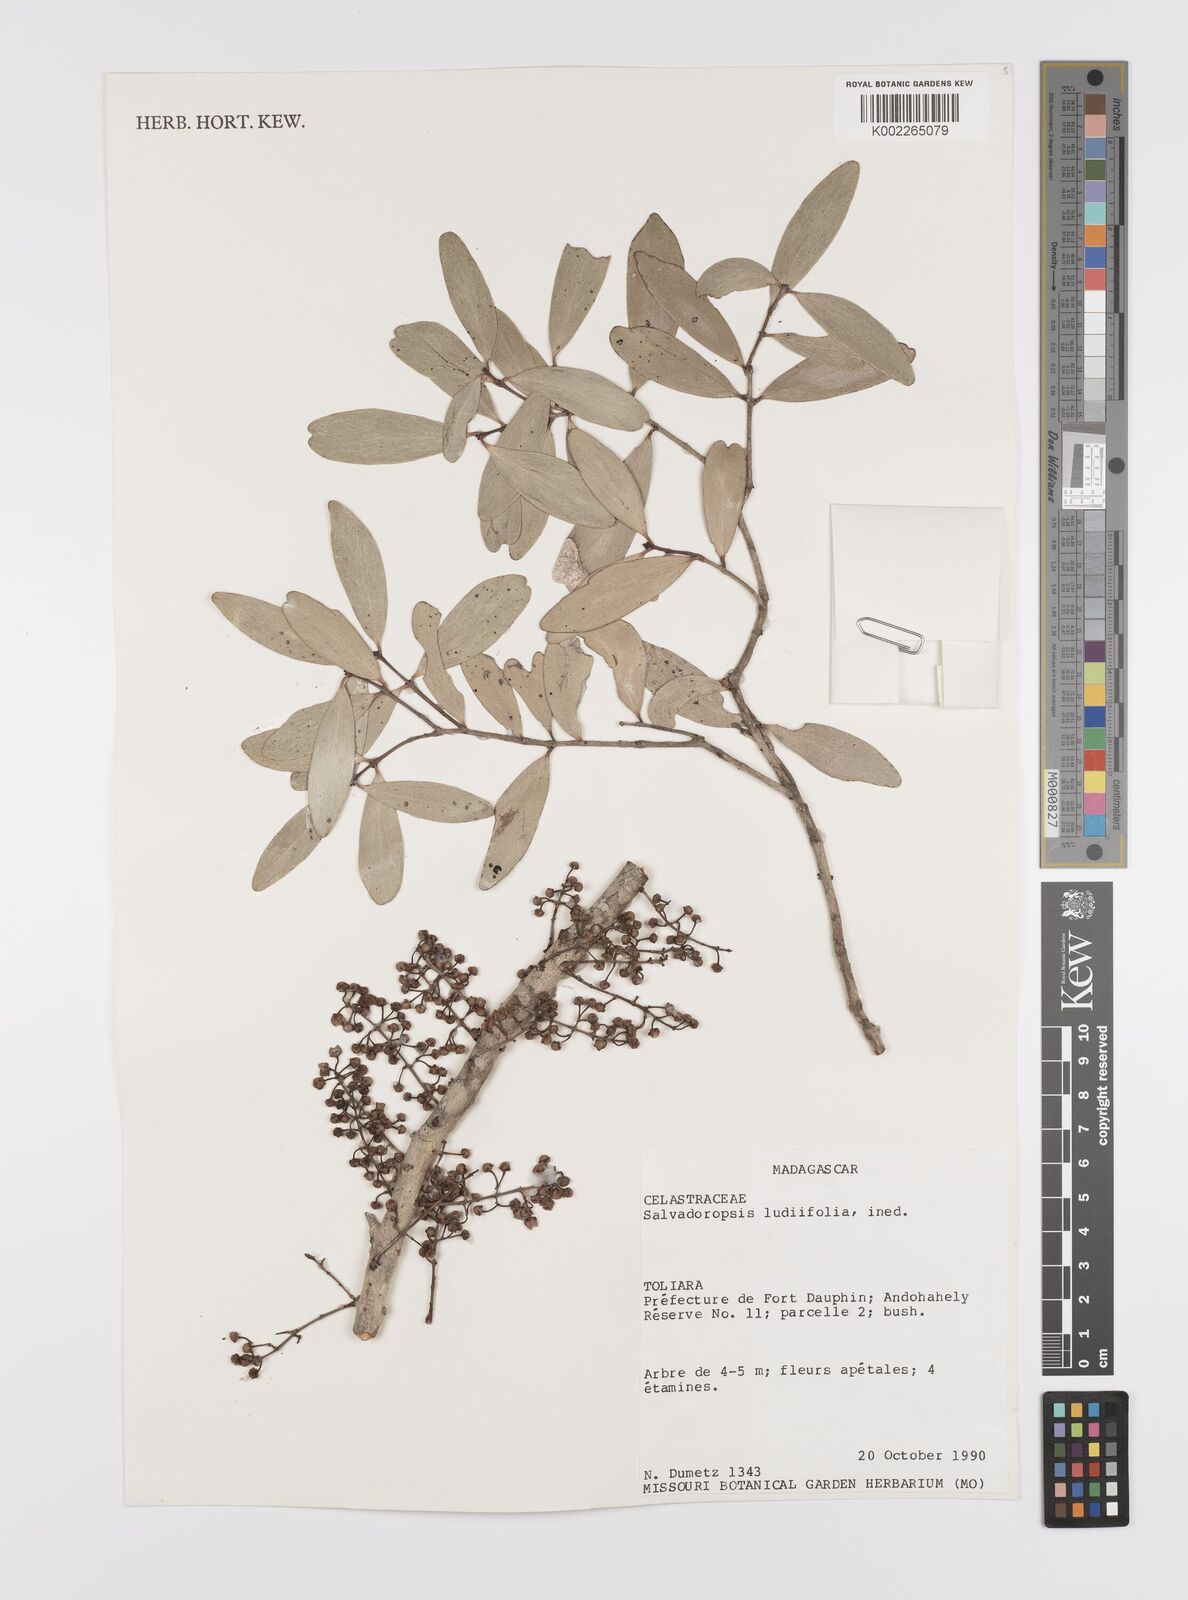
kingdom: Plantae
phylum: Tracheophyta
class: Magnoliopsida
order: Celastrales
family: Celastraceae
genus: Salvadoropsis
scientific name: Salvadoropsis
